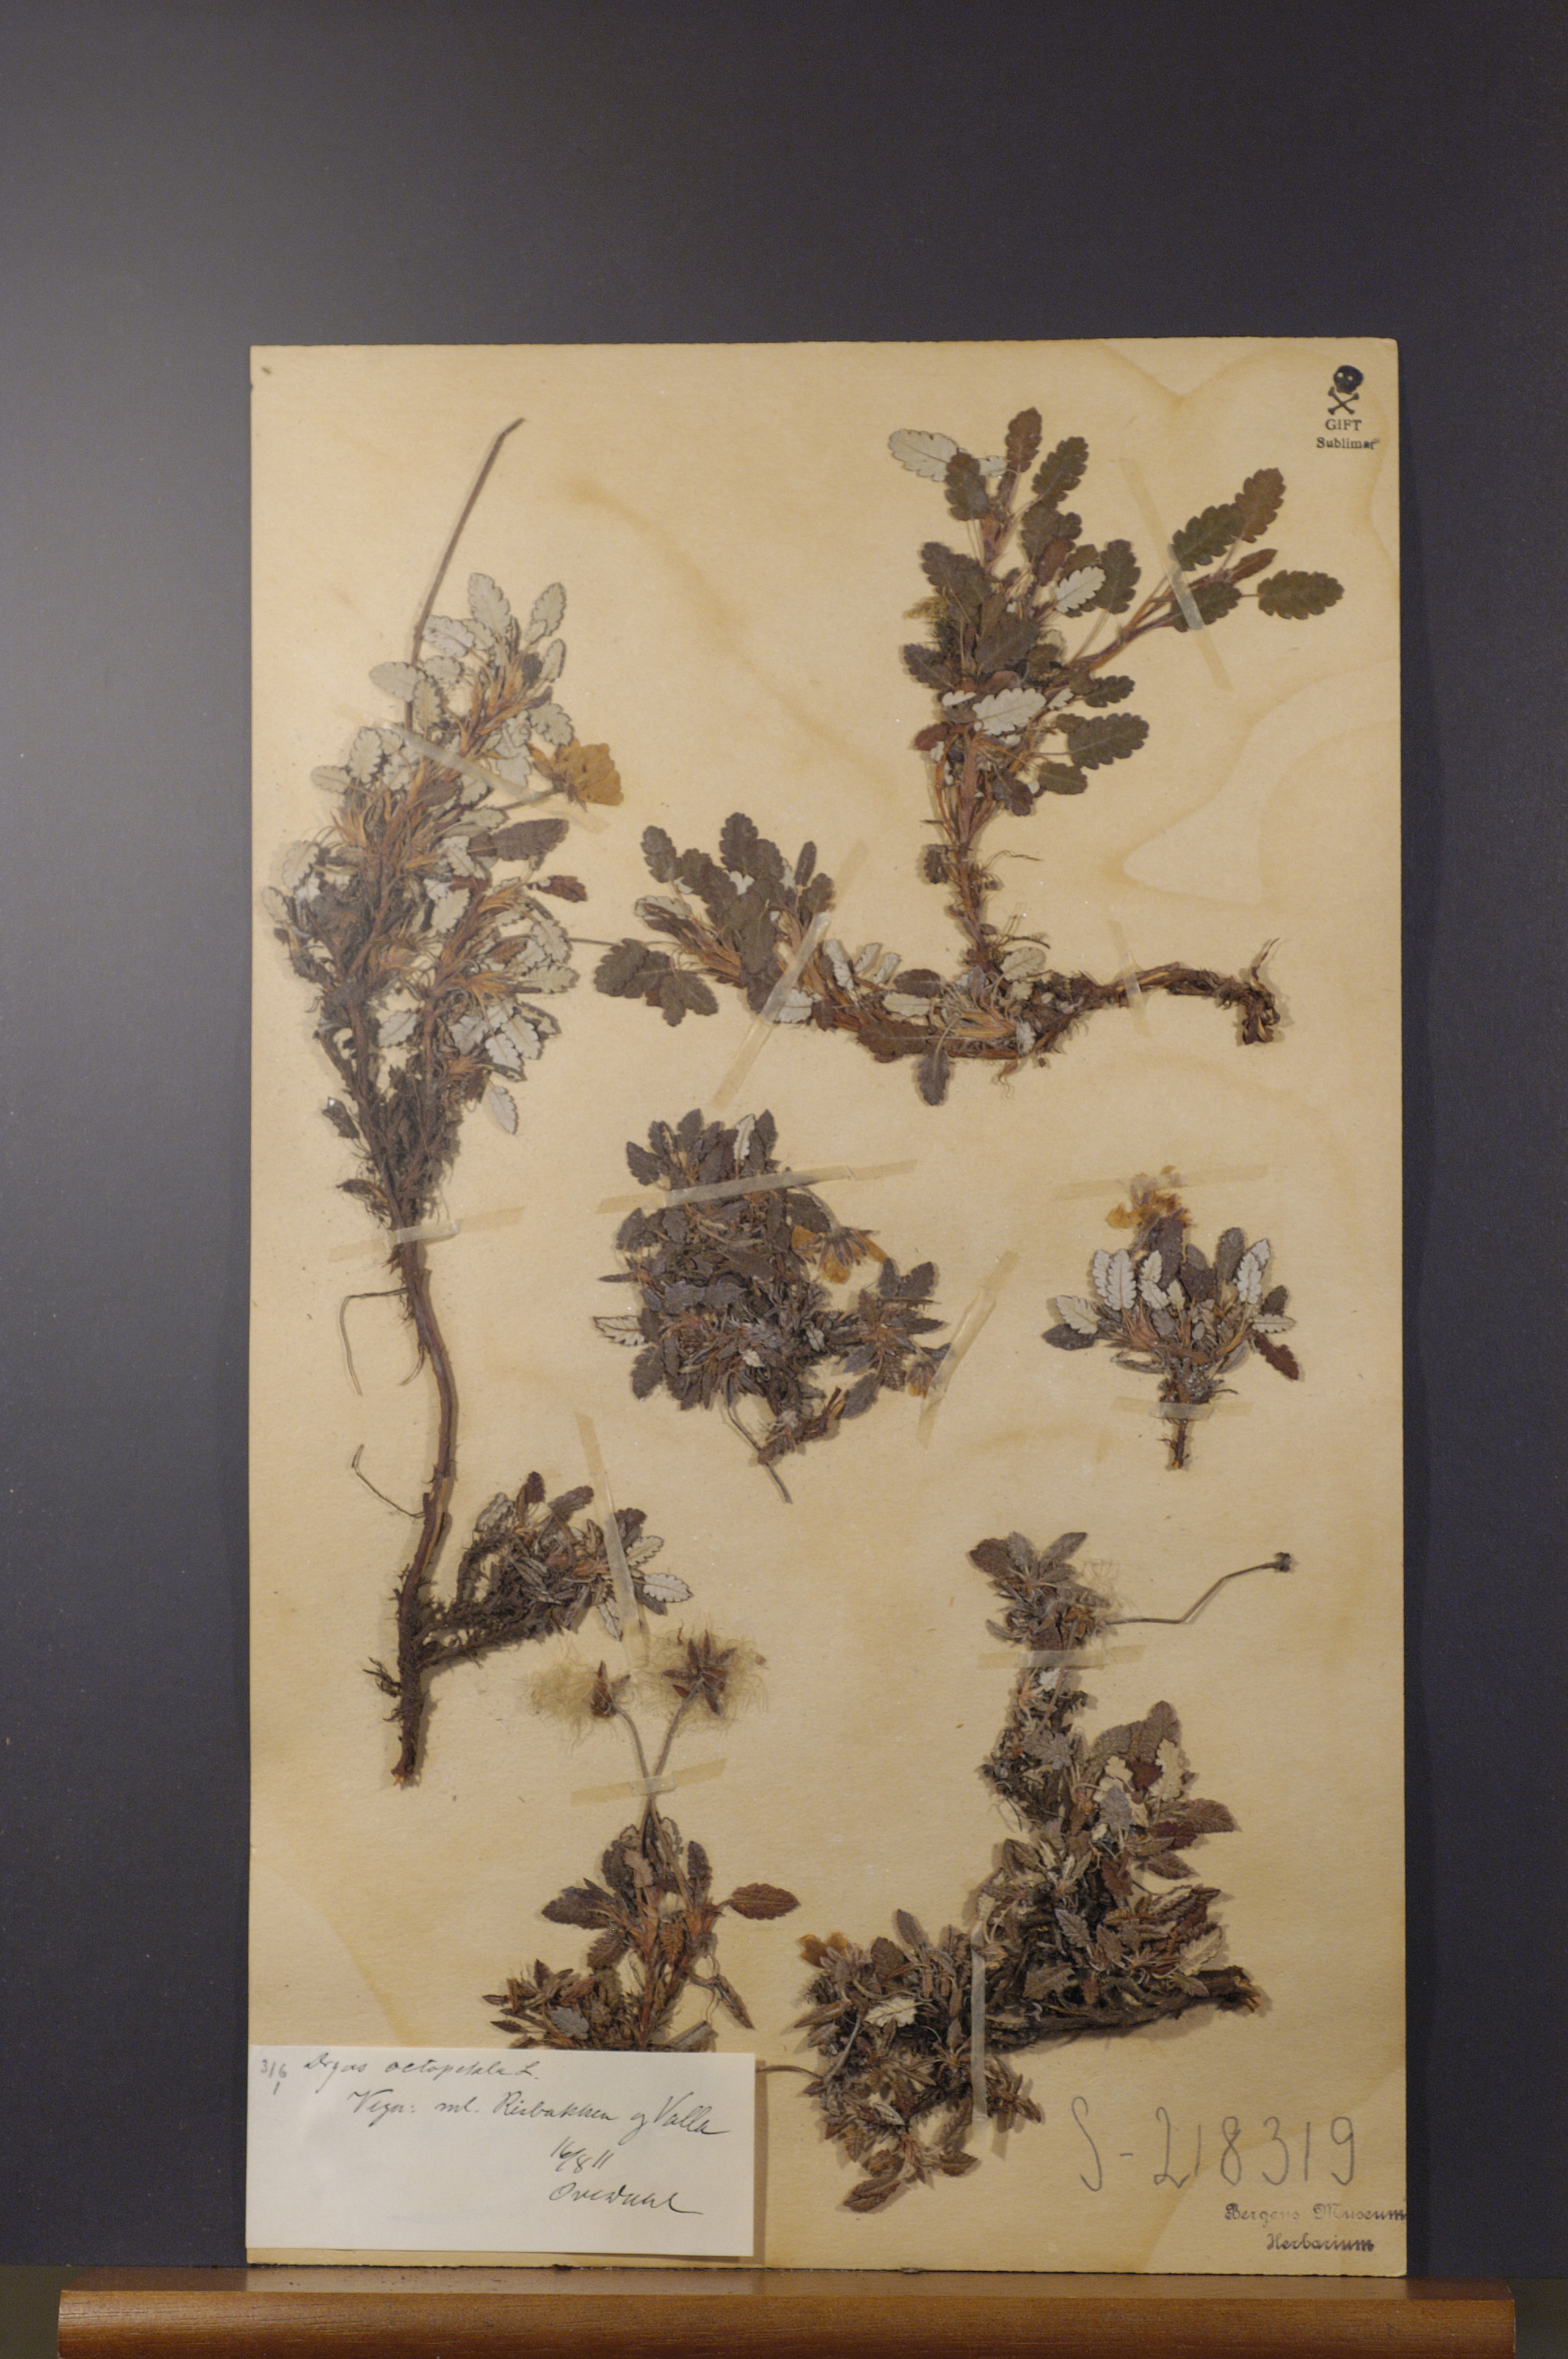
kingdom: Plantae
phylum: Tracheophyta
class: Magnoliopsida
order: Rosales
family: Rosaceae
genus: Dryas
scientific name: Dryas octopetala
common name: Eight-petal mountain-avens
